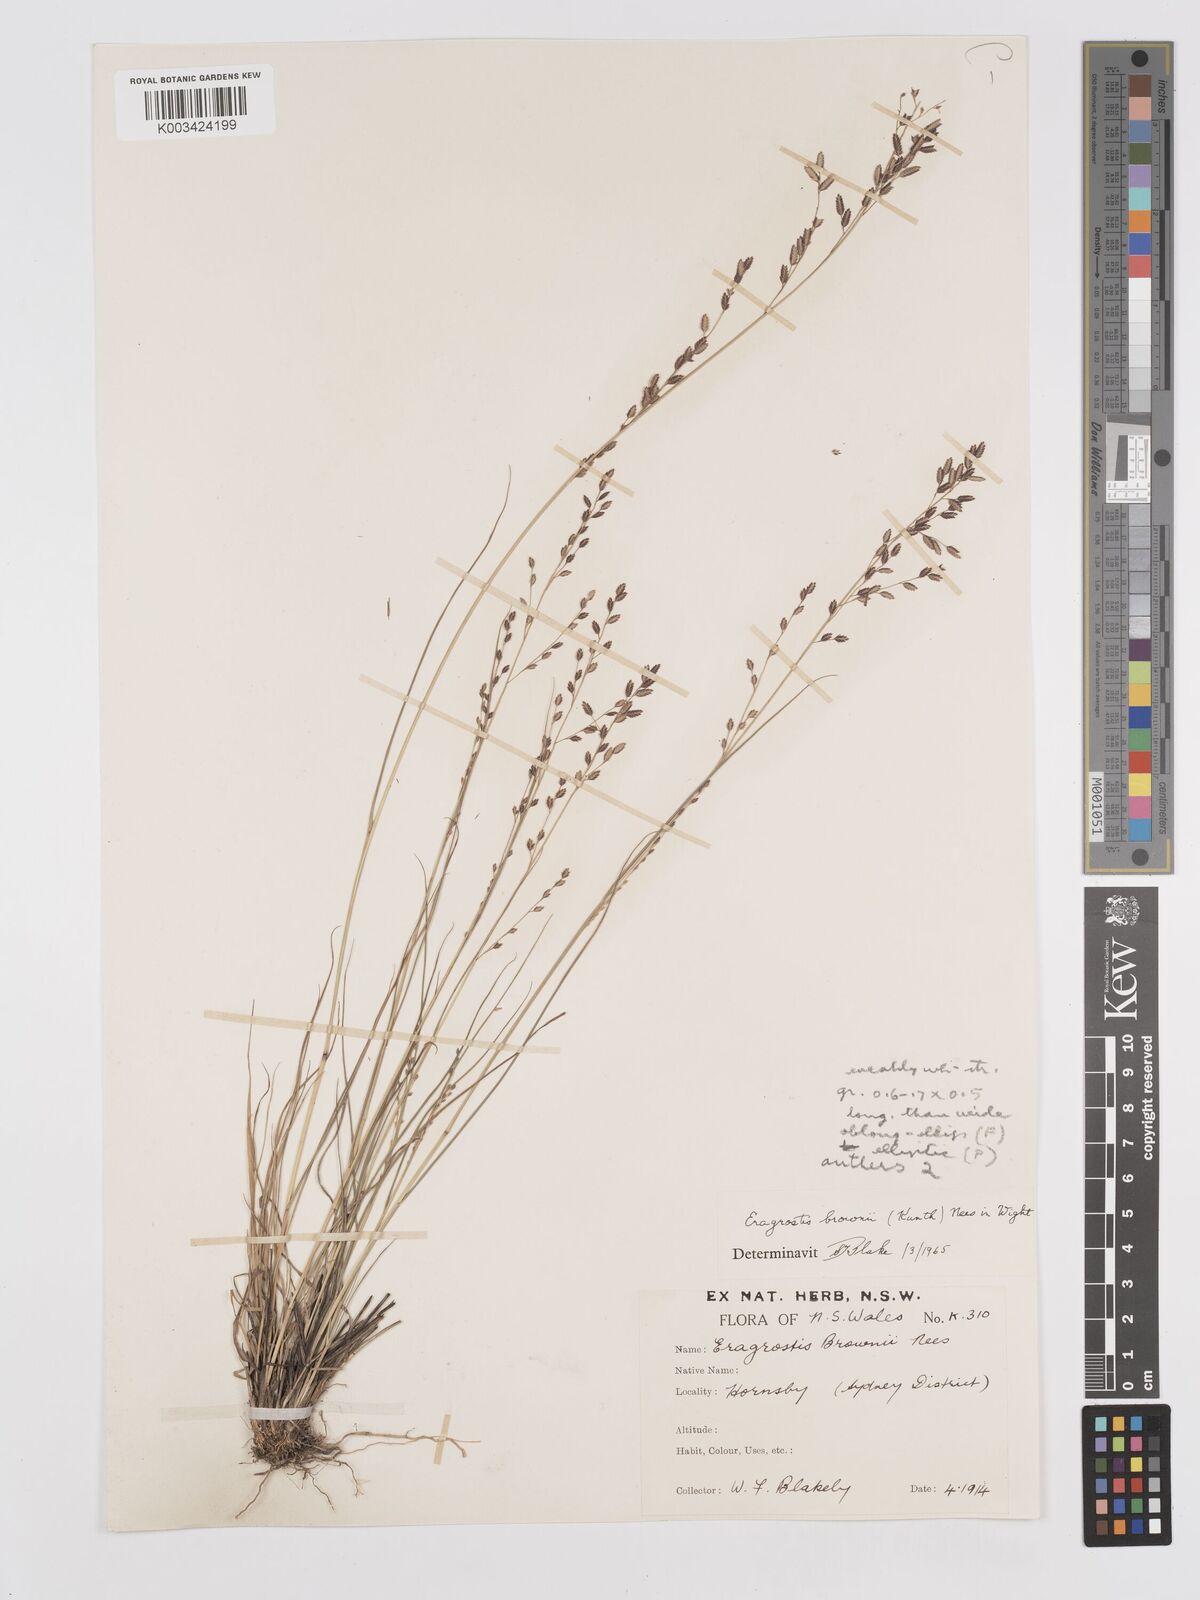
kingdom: Plantae
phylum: Tracheophyta
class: Liliopsida
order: Poales
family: Poaceae
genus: Eragrostis
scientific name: Eragrostis brownii
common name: Lovegrass
